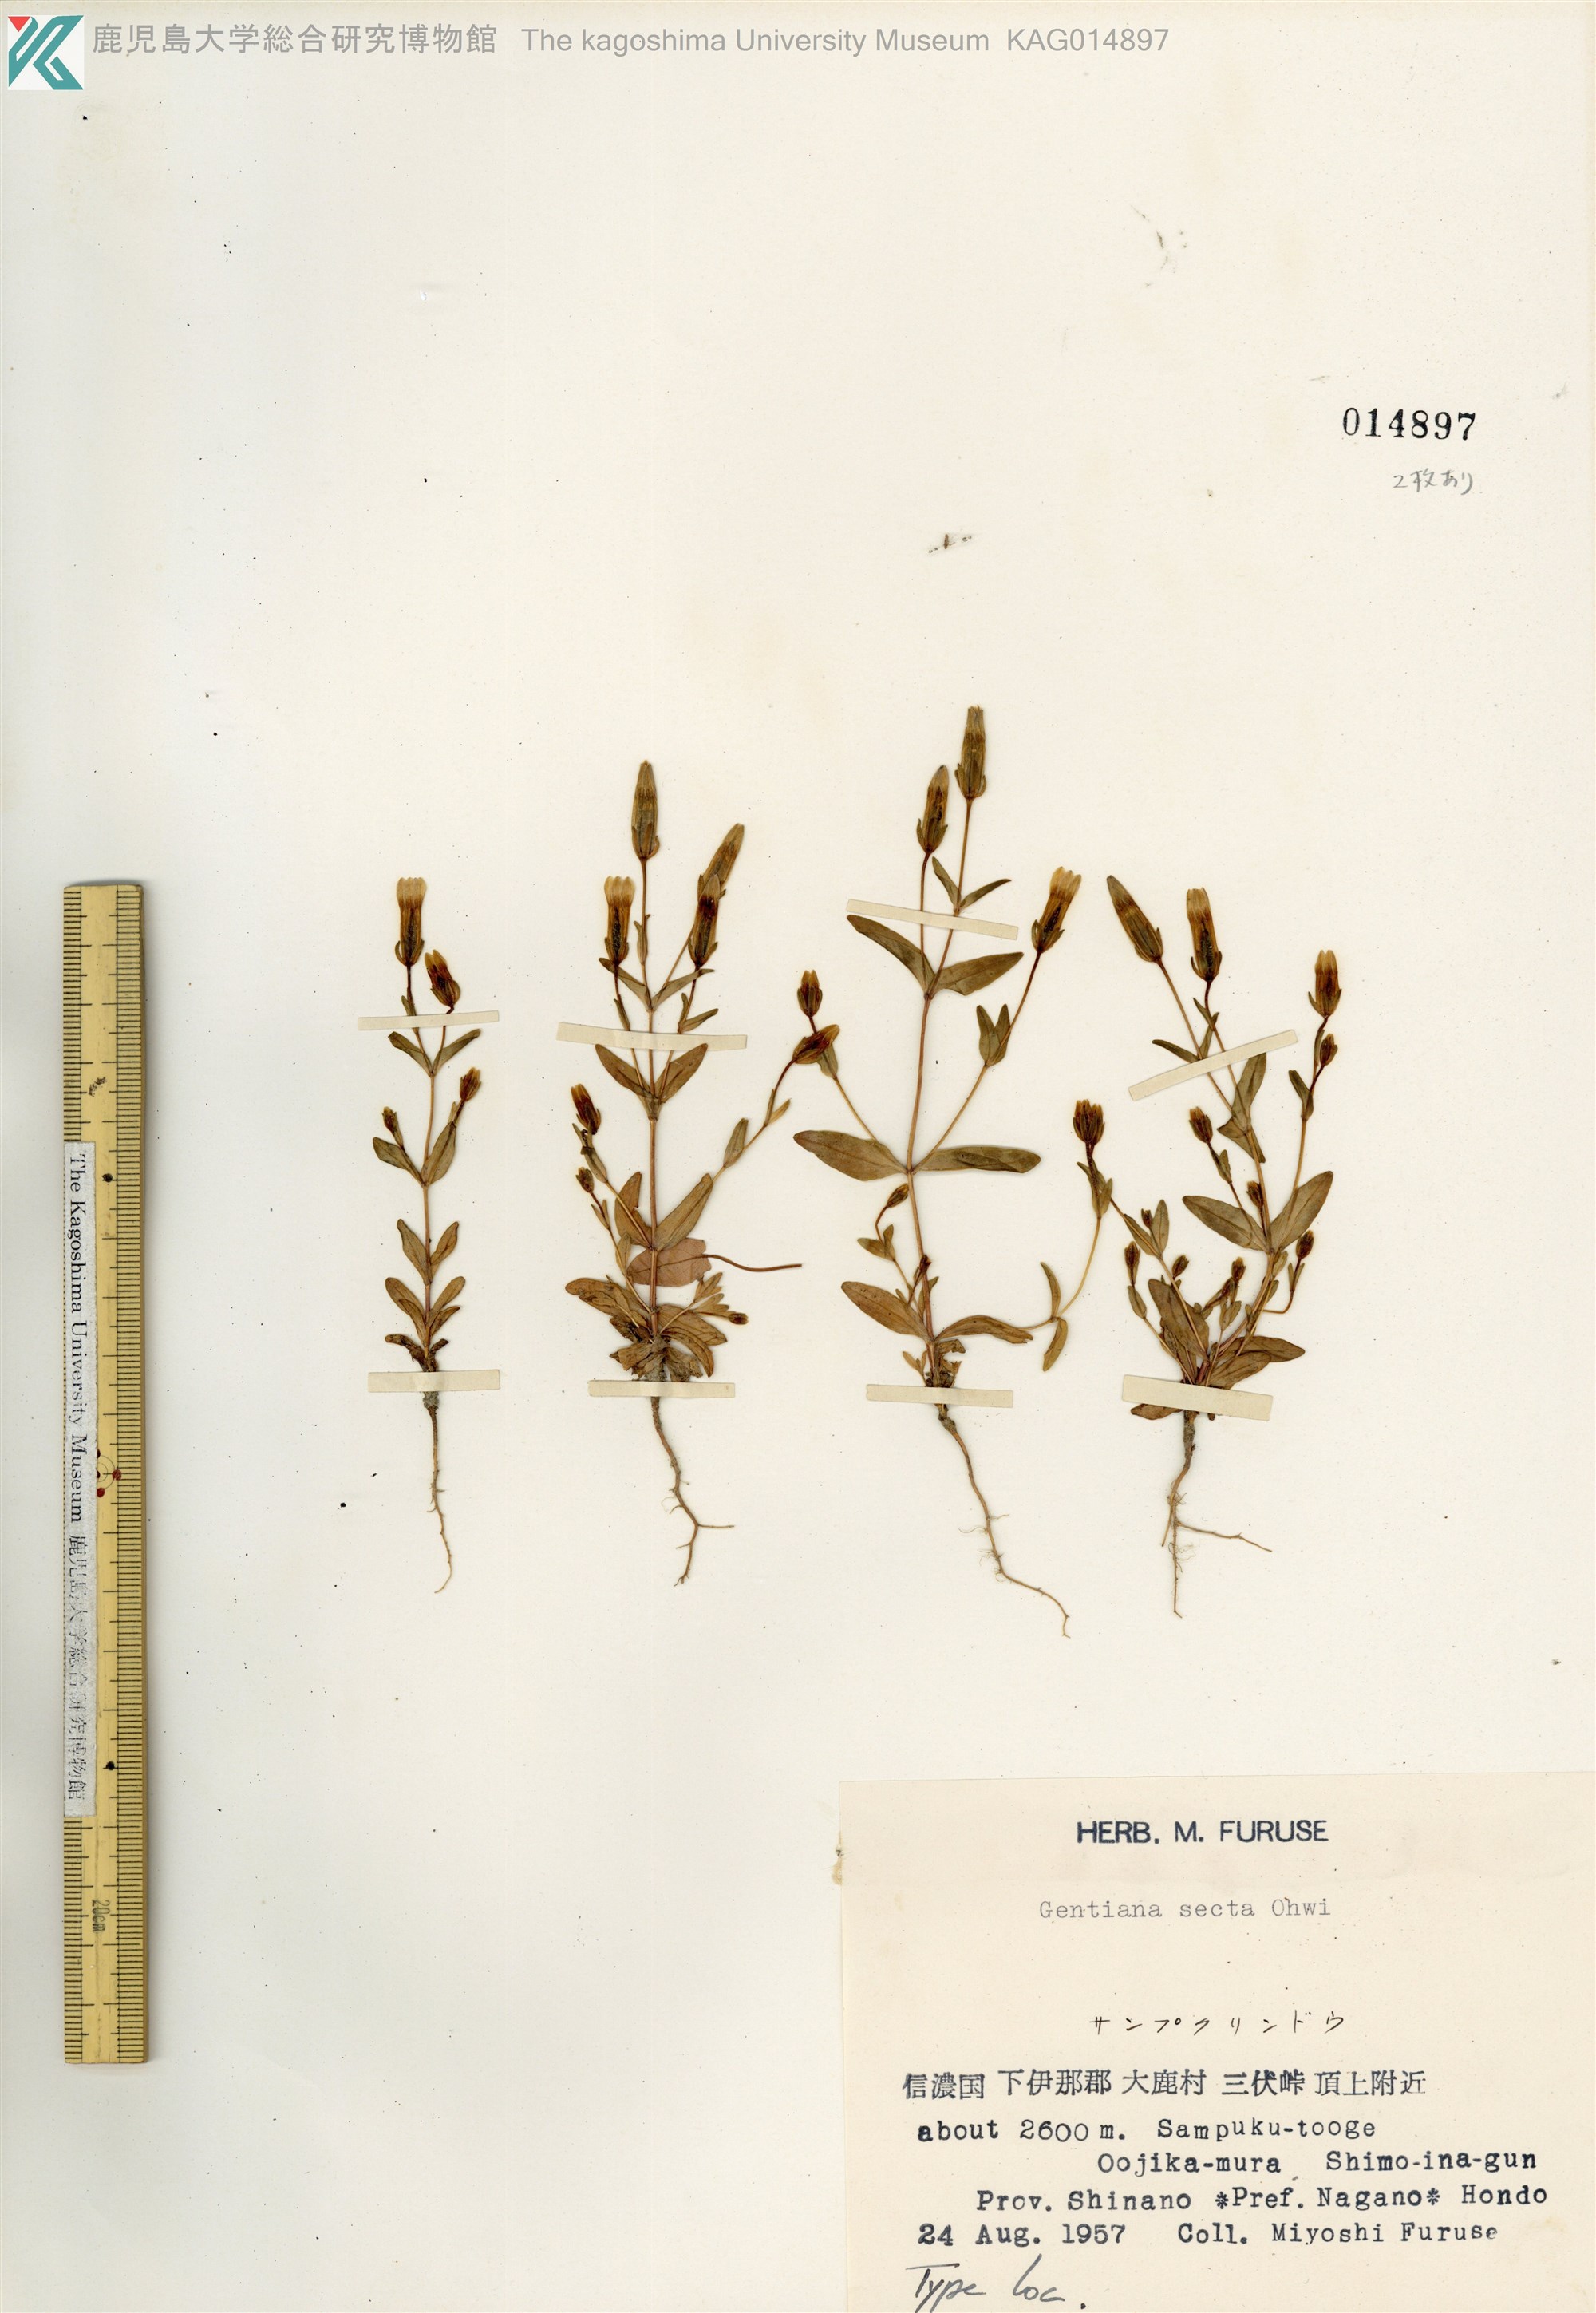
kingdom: Plantae
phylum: Tracheophyta
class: Magnoliopsida
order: Gentianales
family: Gentianaceae
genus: Comastoma
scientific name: Comastoma pulmonarium
